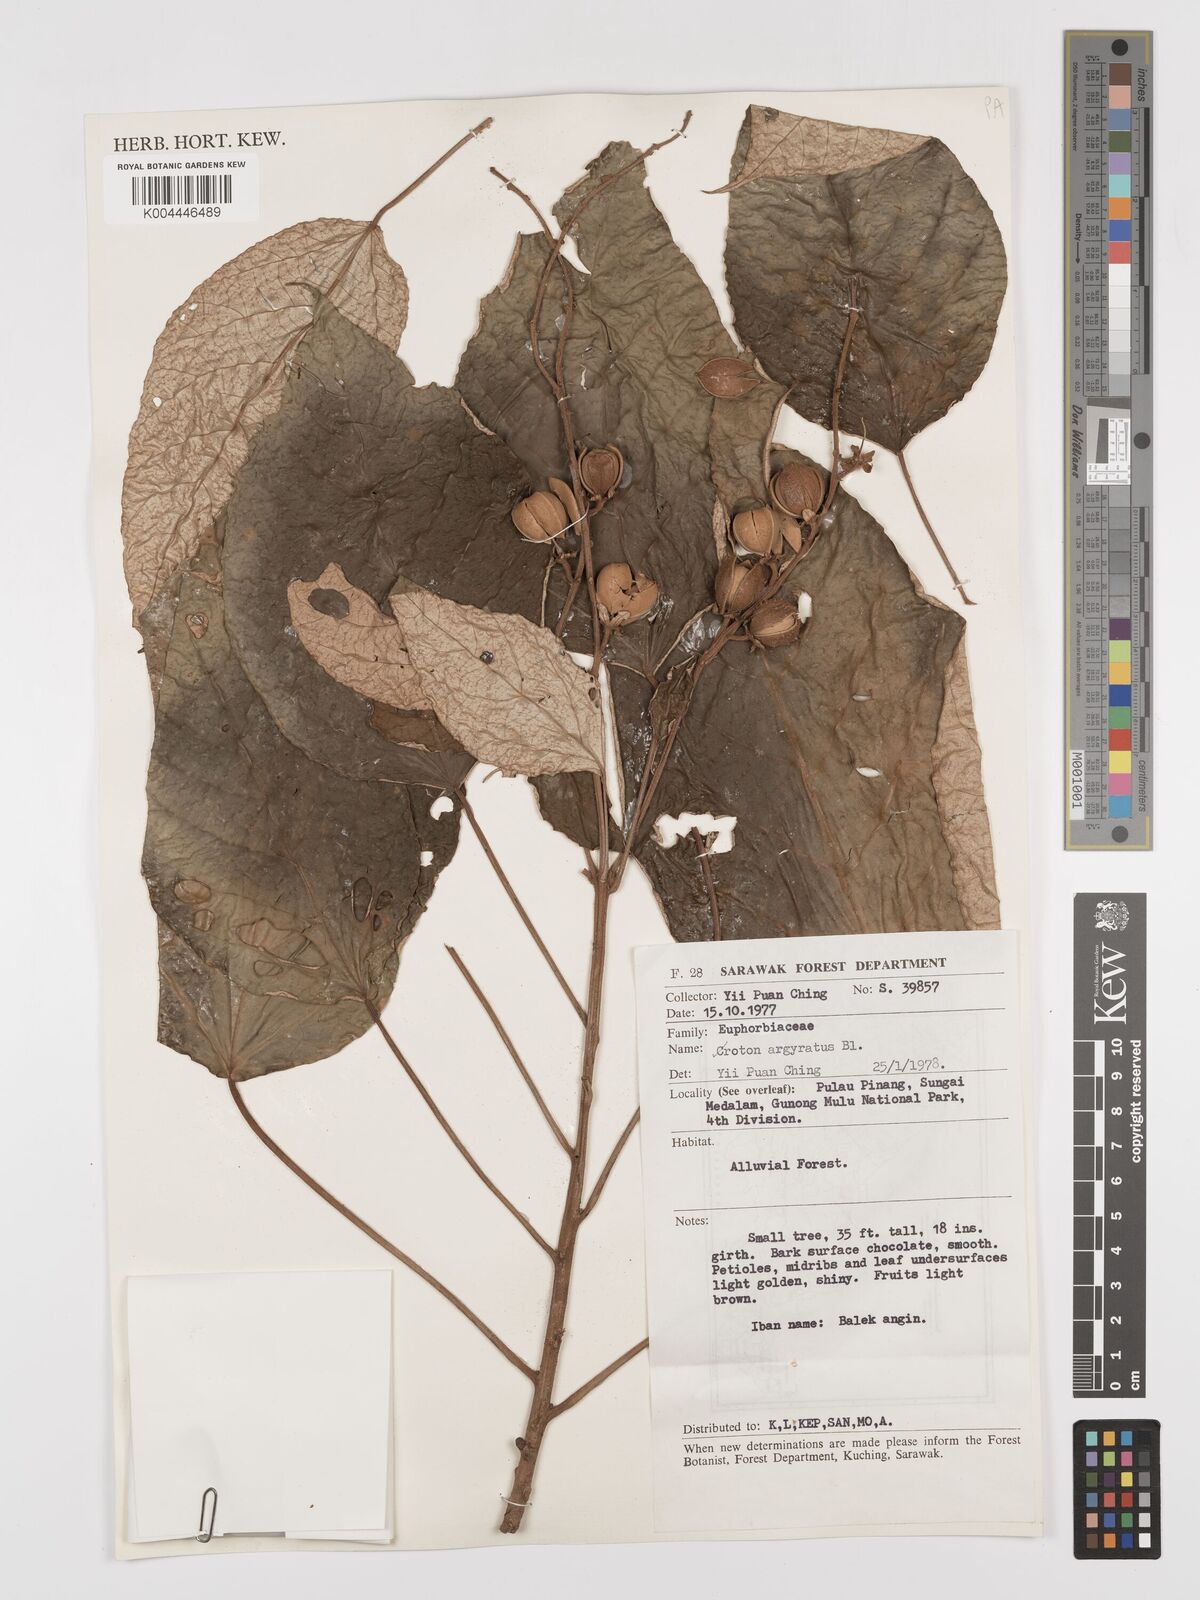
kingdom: Plantae
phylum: Tracheophyta
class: Magnoliopsida
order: Malpighiales
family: Euphorbiaceae
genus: Croton
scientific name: Croton argyratus
